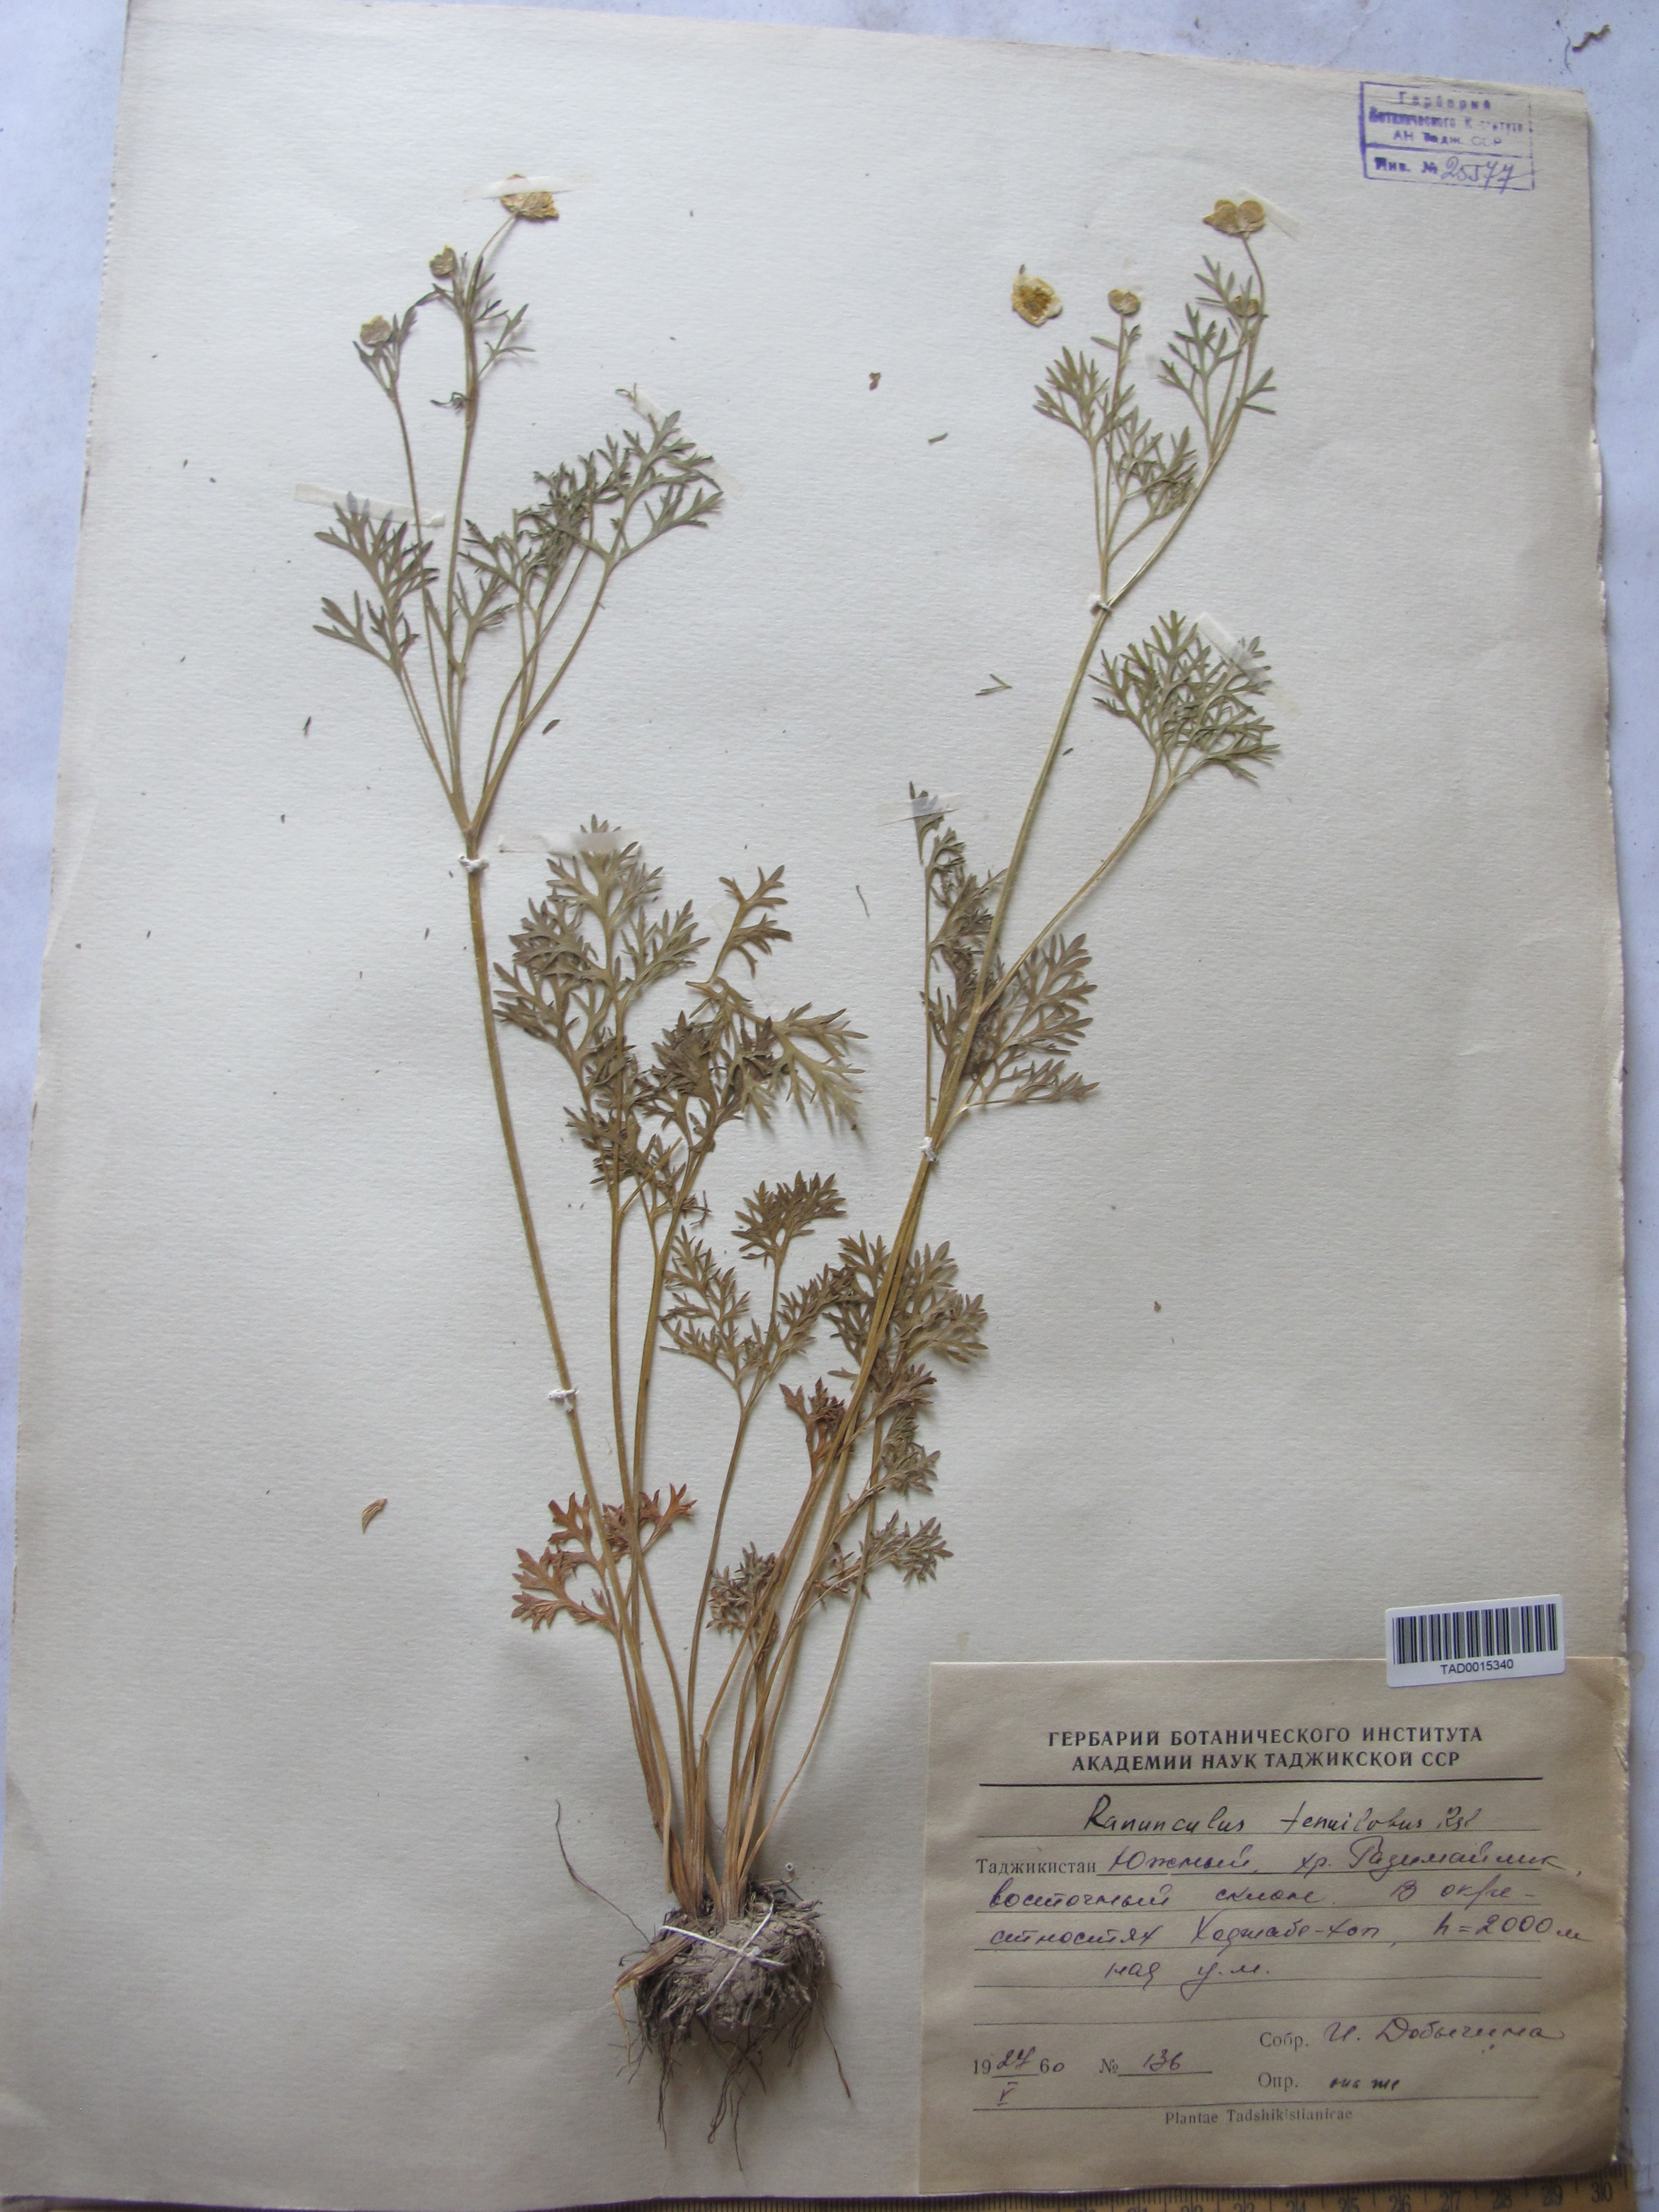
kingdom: Plantae
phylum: Tracheophyta
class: Magnoliopsida
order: Ranunculales
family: Ranunculaceae
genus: Ranunculus
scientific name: Ranunculus tenuilobus
